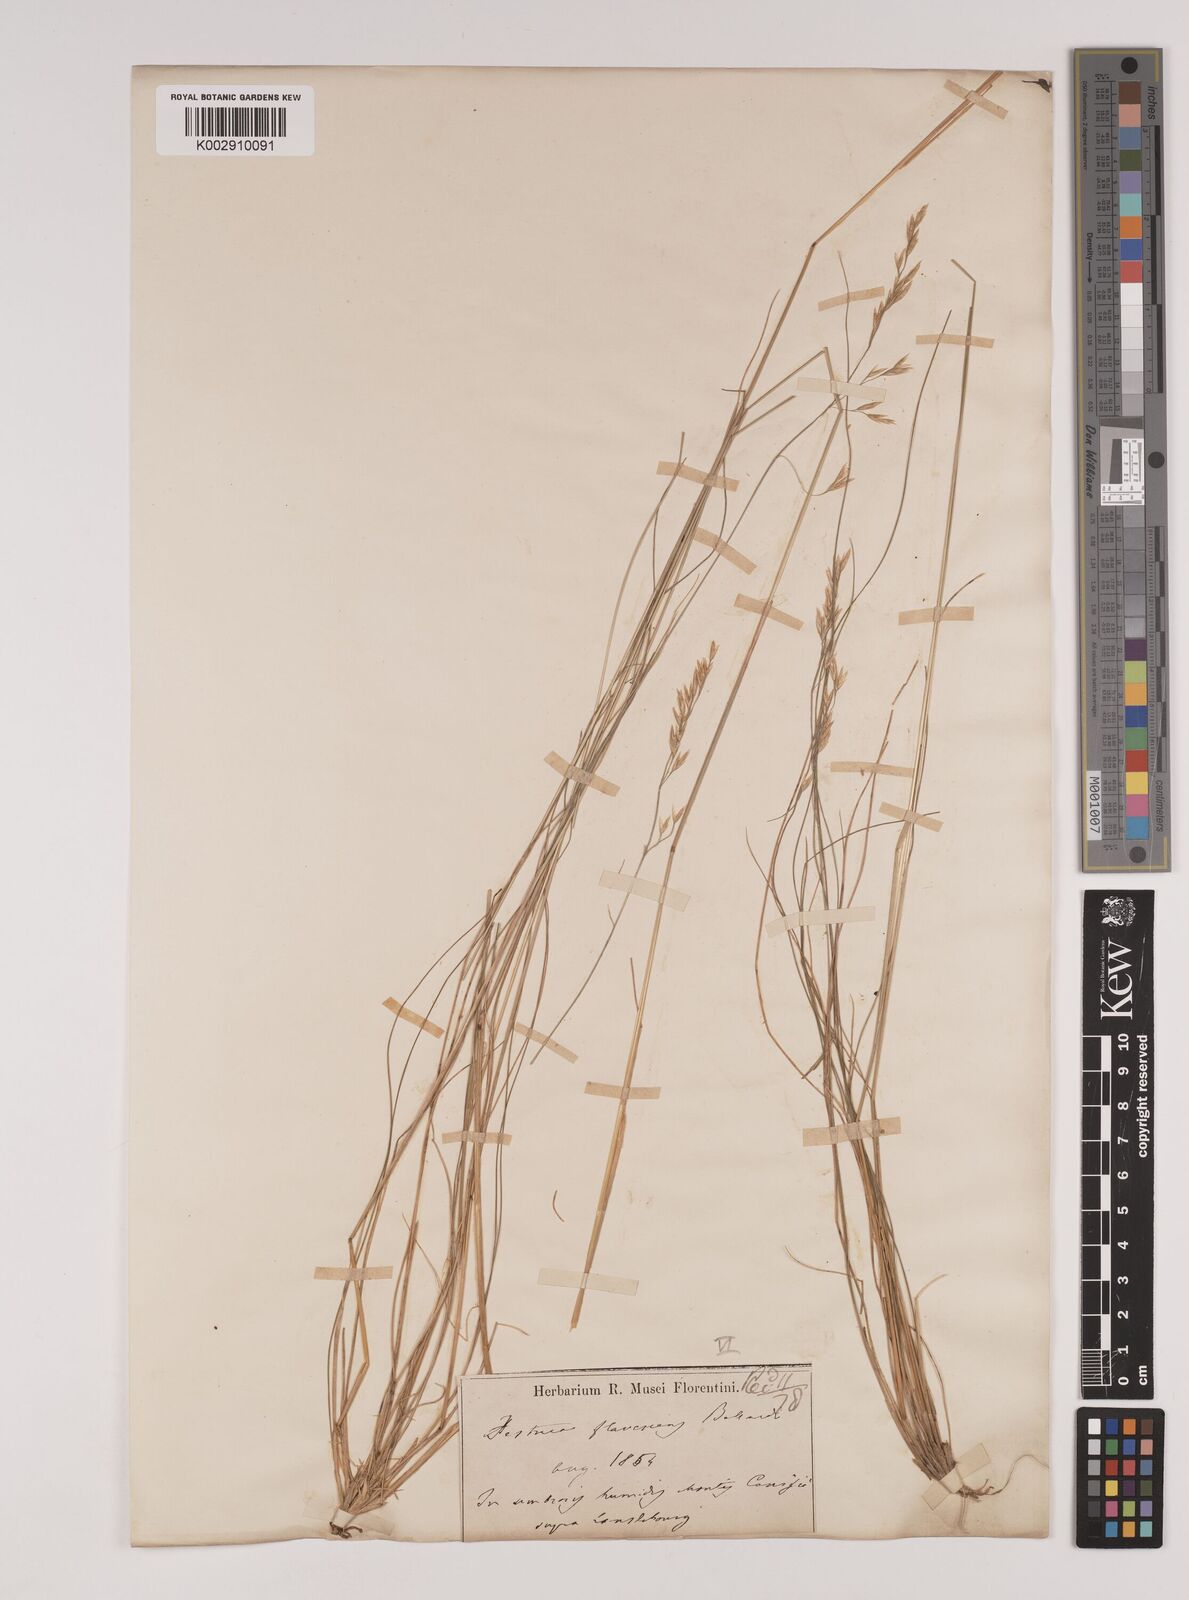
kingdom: Plantae
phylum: Tracheophyta
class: Liliopsida
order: Poales
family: Poaceae
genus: Festuca
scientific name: Festuca flavescens
